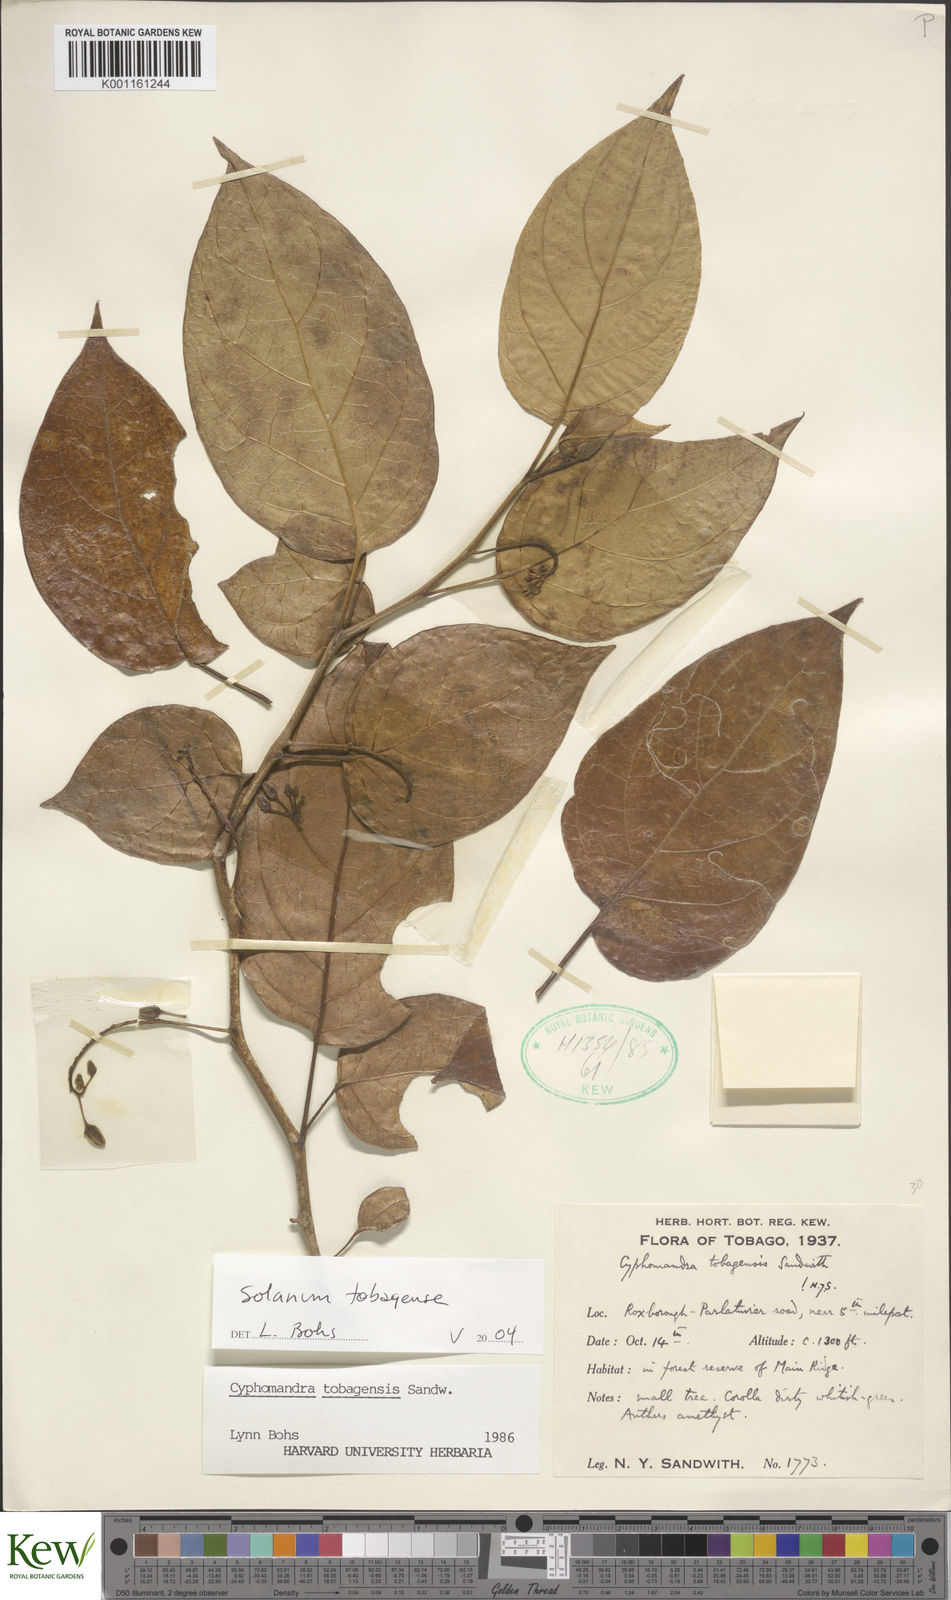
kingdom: Plantae
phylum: Tracheophyta
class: Magnoliopsida
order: Solanales
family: Solanaceae
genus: Solanum
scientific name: Solanum tobagense
